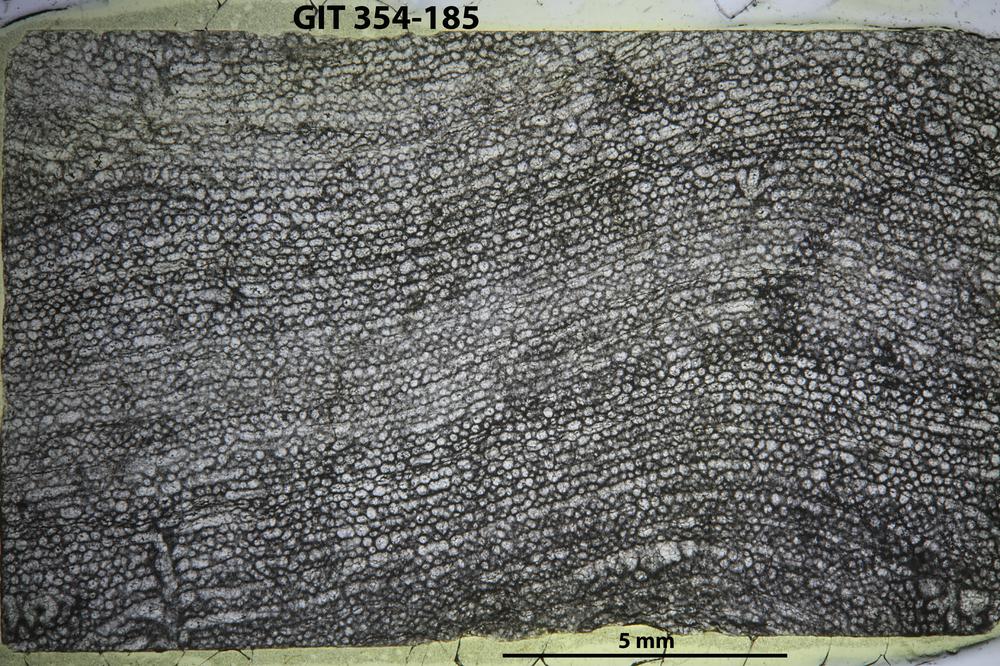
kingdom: Animalia
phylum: Porifera
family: Clathrodictyidae
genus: Clathrodictyon
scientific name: Clathrodictyon boreale
